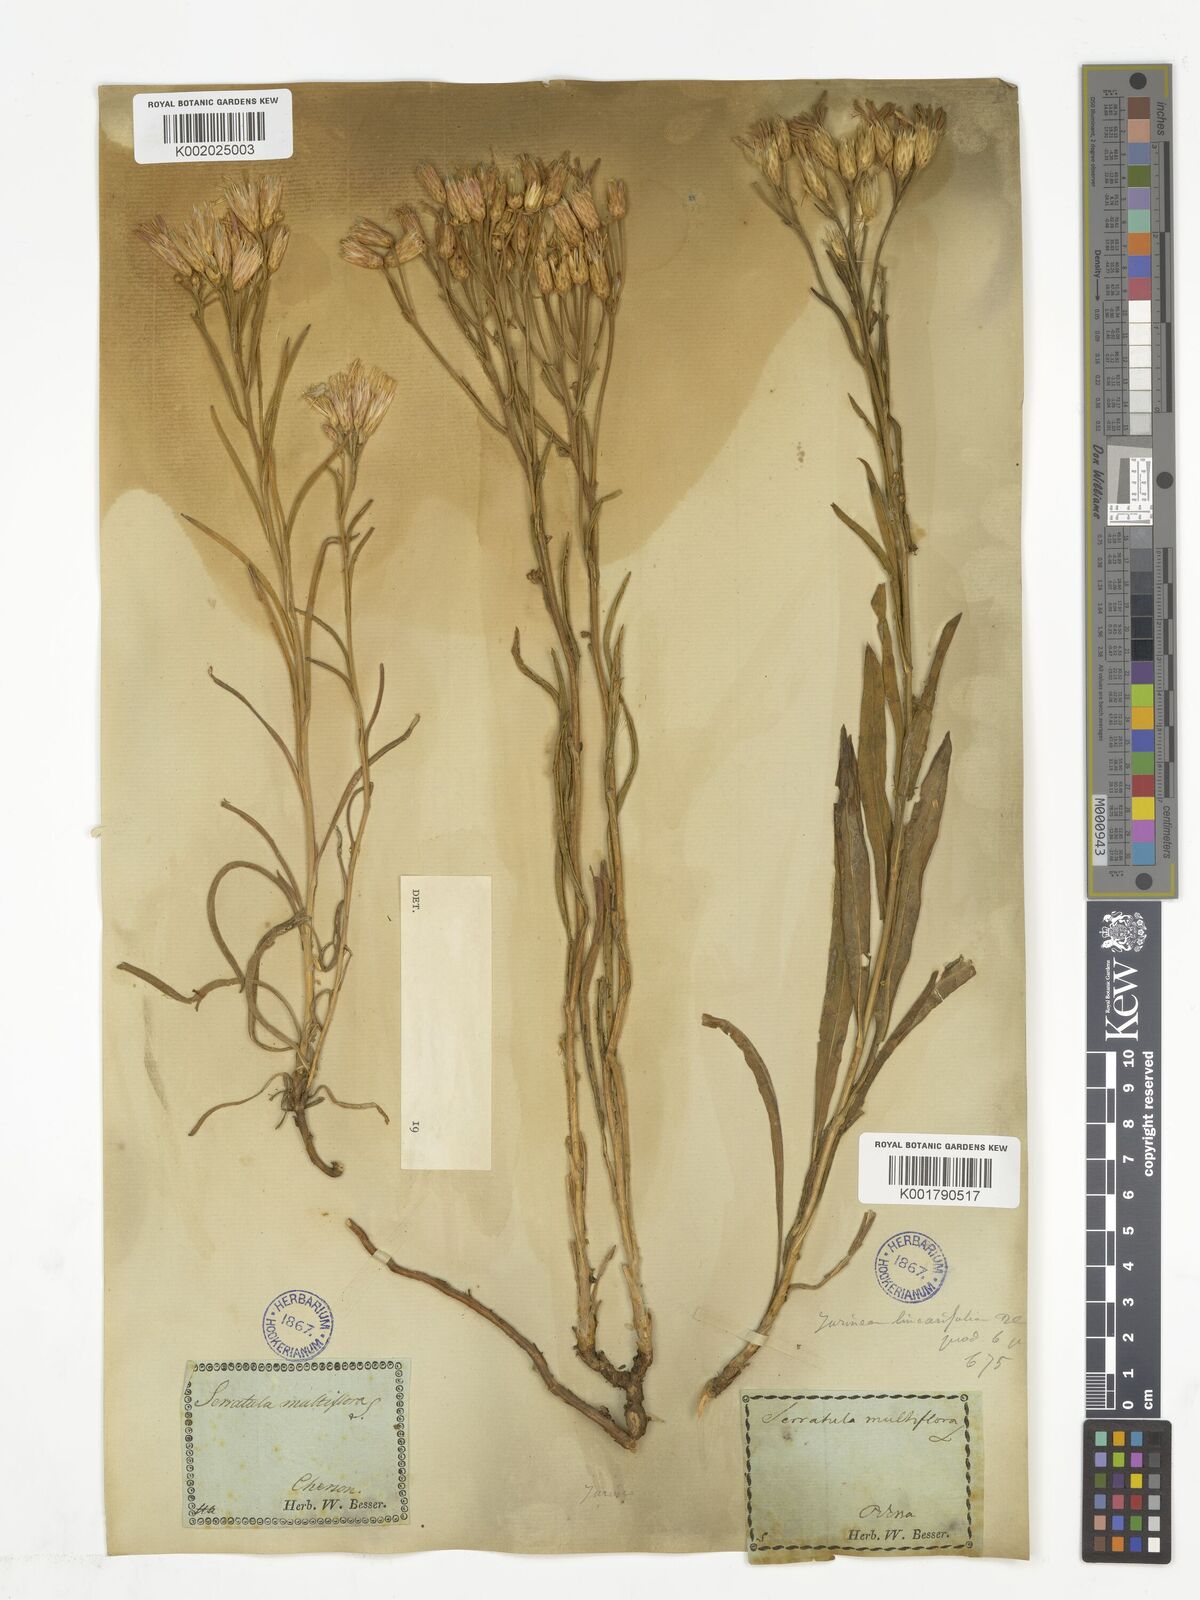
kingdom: Plantae
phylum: Tracheophyta
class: Magnoliopsida
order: Asterales
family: Asteraceae
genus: Jurinea
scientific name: Jurinea multiflora
